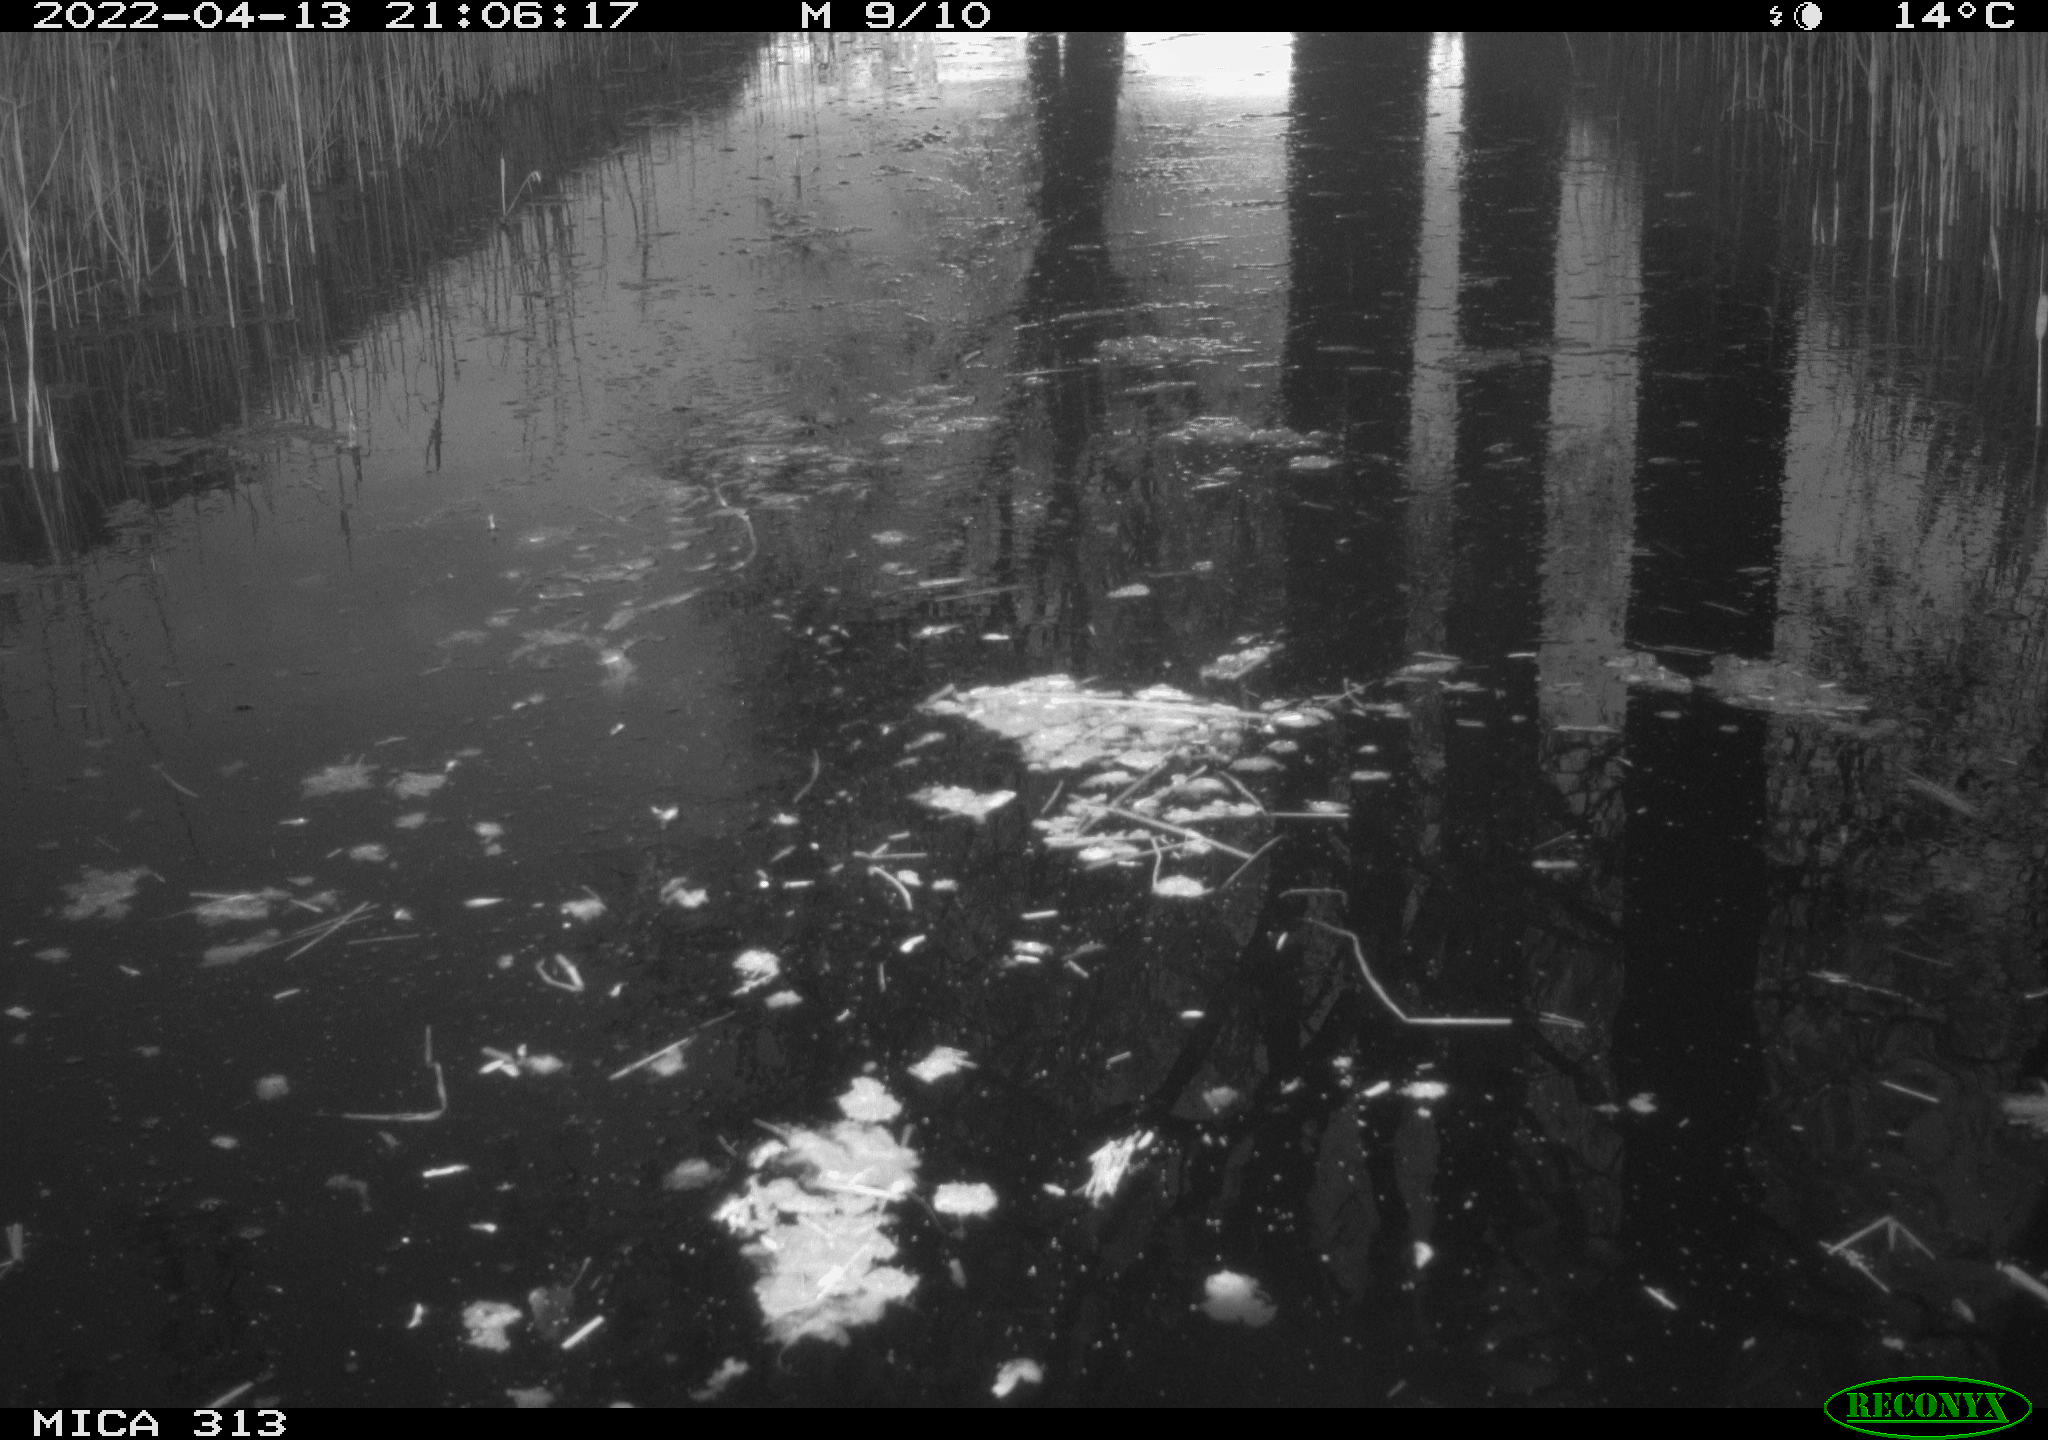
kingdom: Animalia
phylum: Chordata
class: Aves
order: Gruiformes
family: Rallidae
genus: Gallinula
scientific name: Gallinula chloropus
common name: Common moorhen
